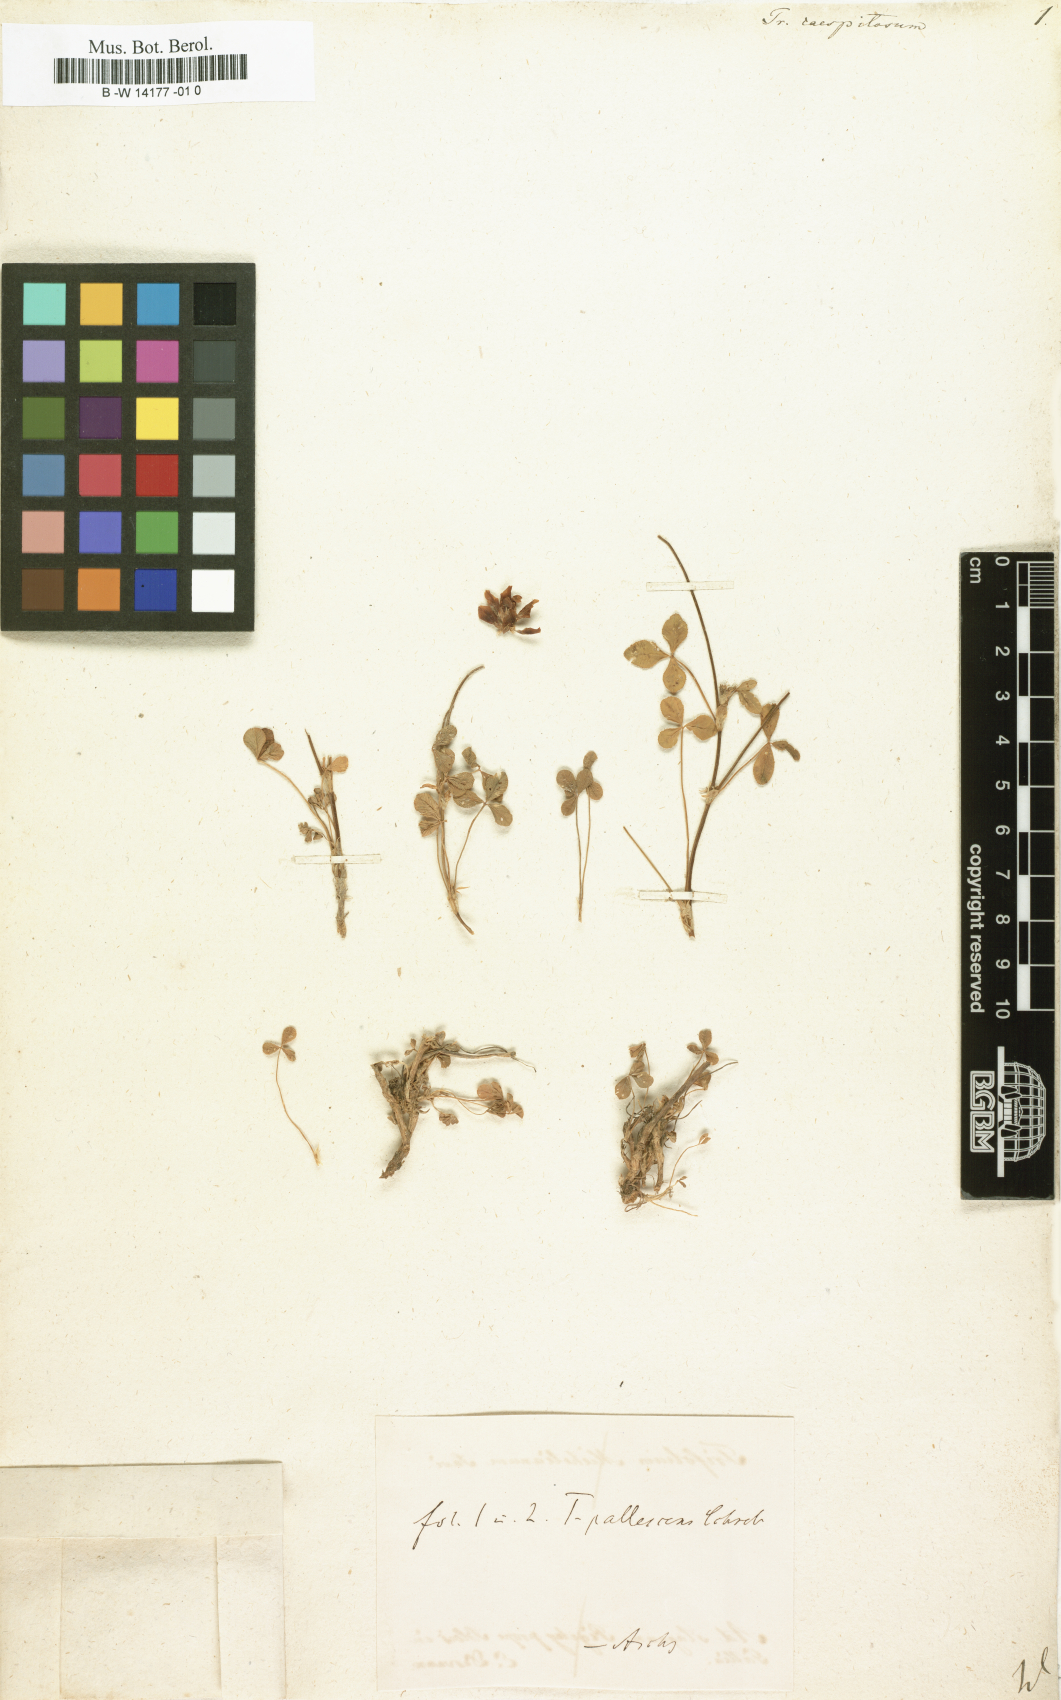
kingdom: Plantae
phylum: Tracheophyta
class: Magnoliopsida
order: Fabales
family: Fabaceae
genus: Trifolium
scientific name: Trifolium
